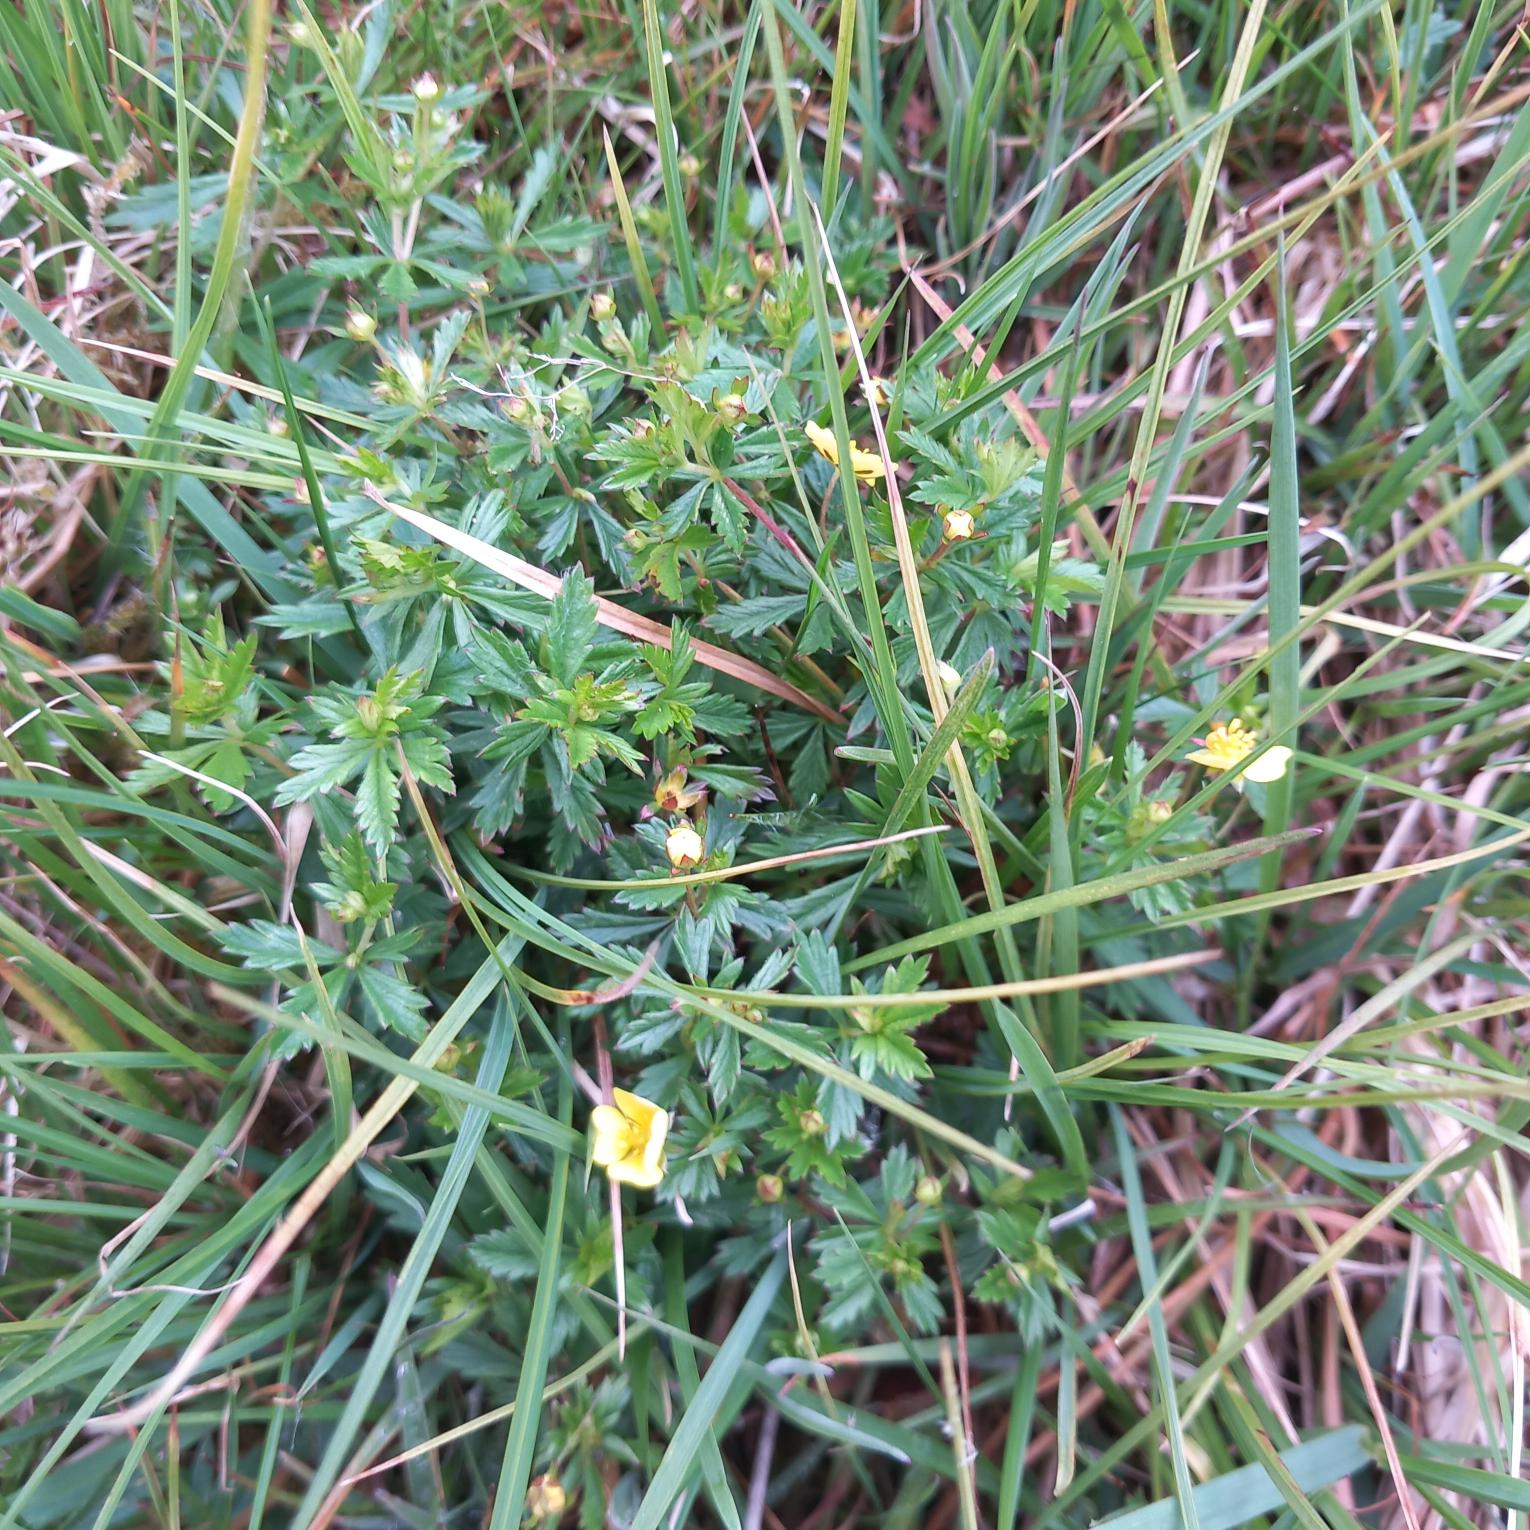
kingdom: Plantae
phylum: Tracheophyta
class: Magnoliopsida
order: Rosales
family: Rosaceae
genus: Potentilla
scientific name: Potentilla erecta
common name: Tormentil
